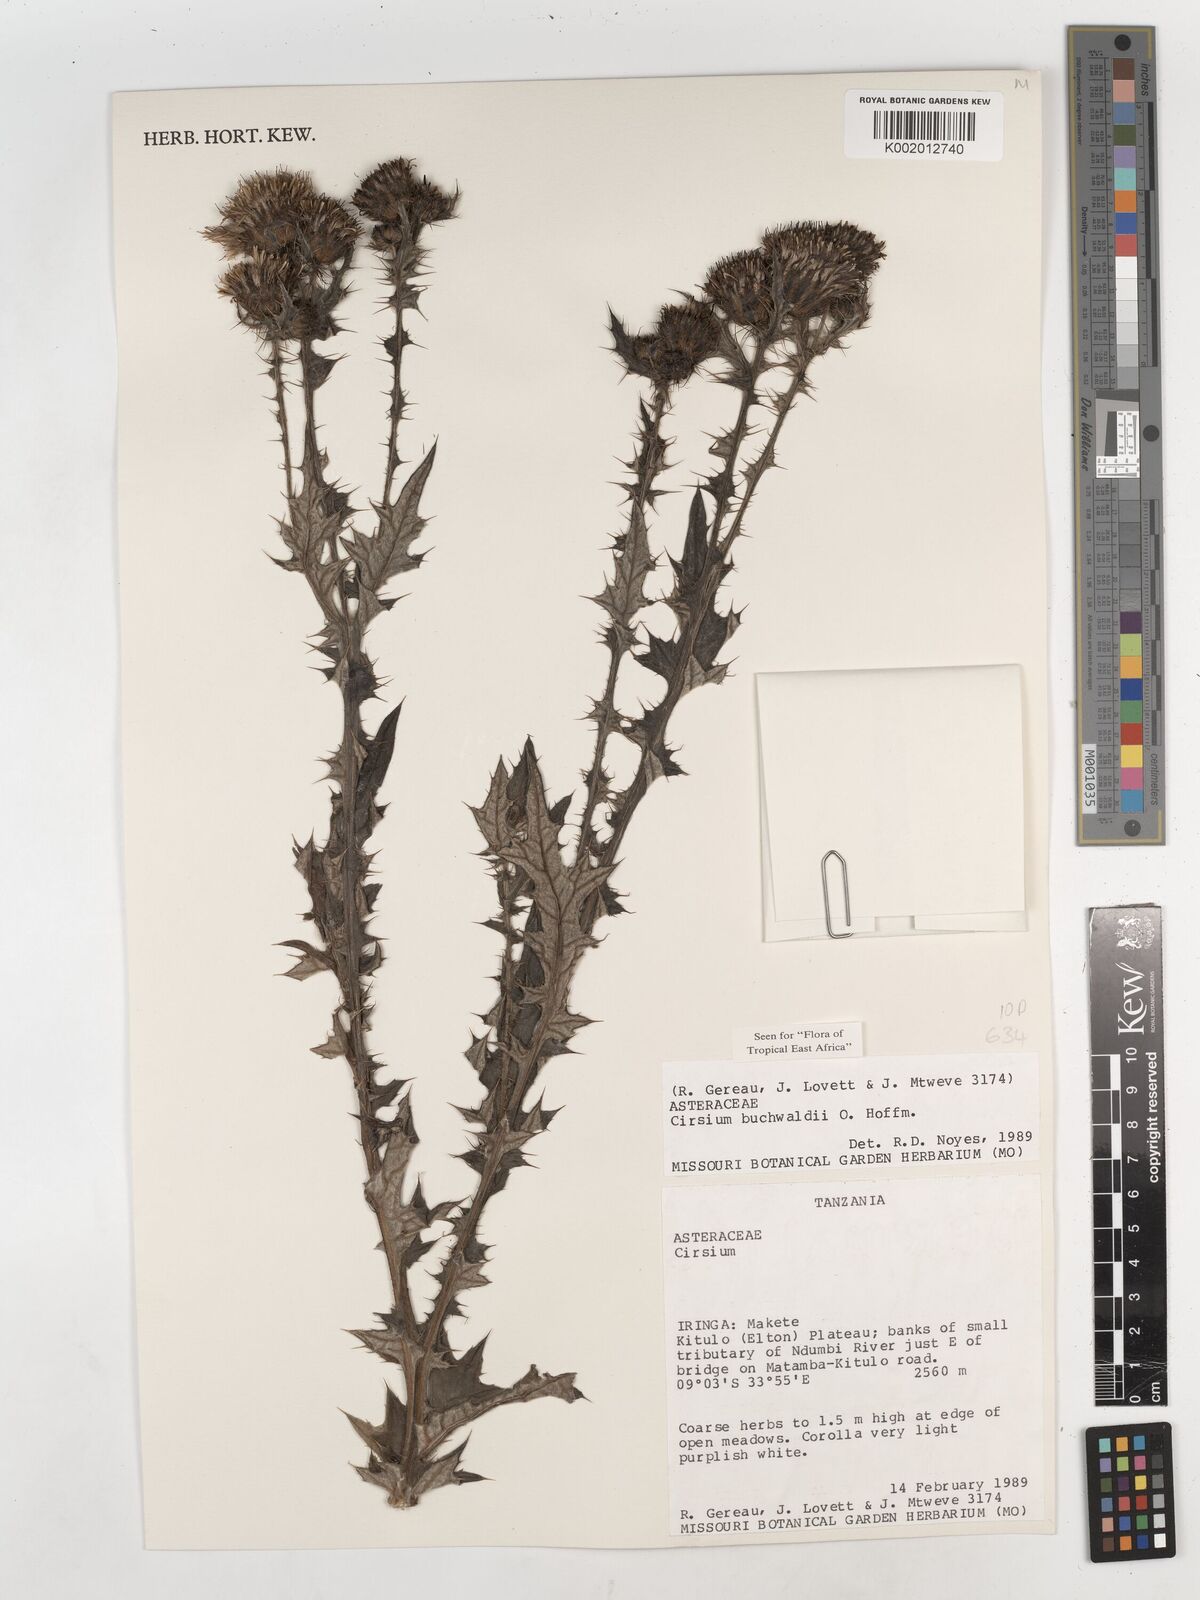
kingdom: Plantae
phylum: Tracheophyta
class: Magnoliopsida
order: Asterales
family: Asteraceae
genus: Cirsium
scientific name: Cirsium buchwaldii
